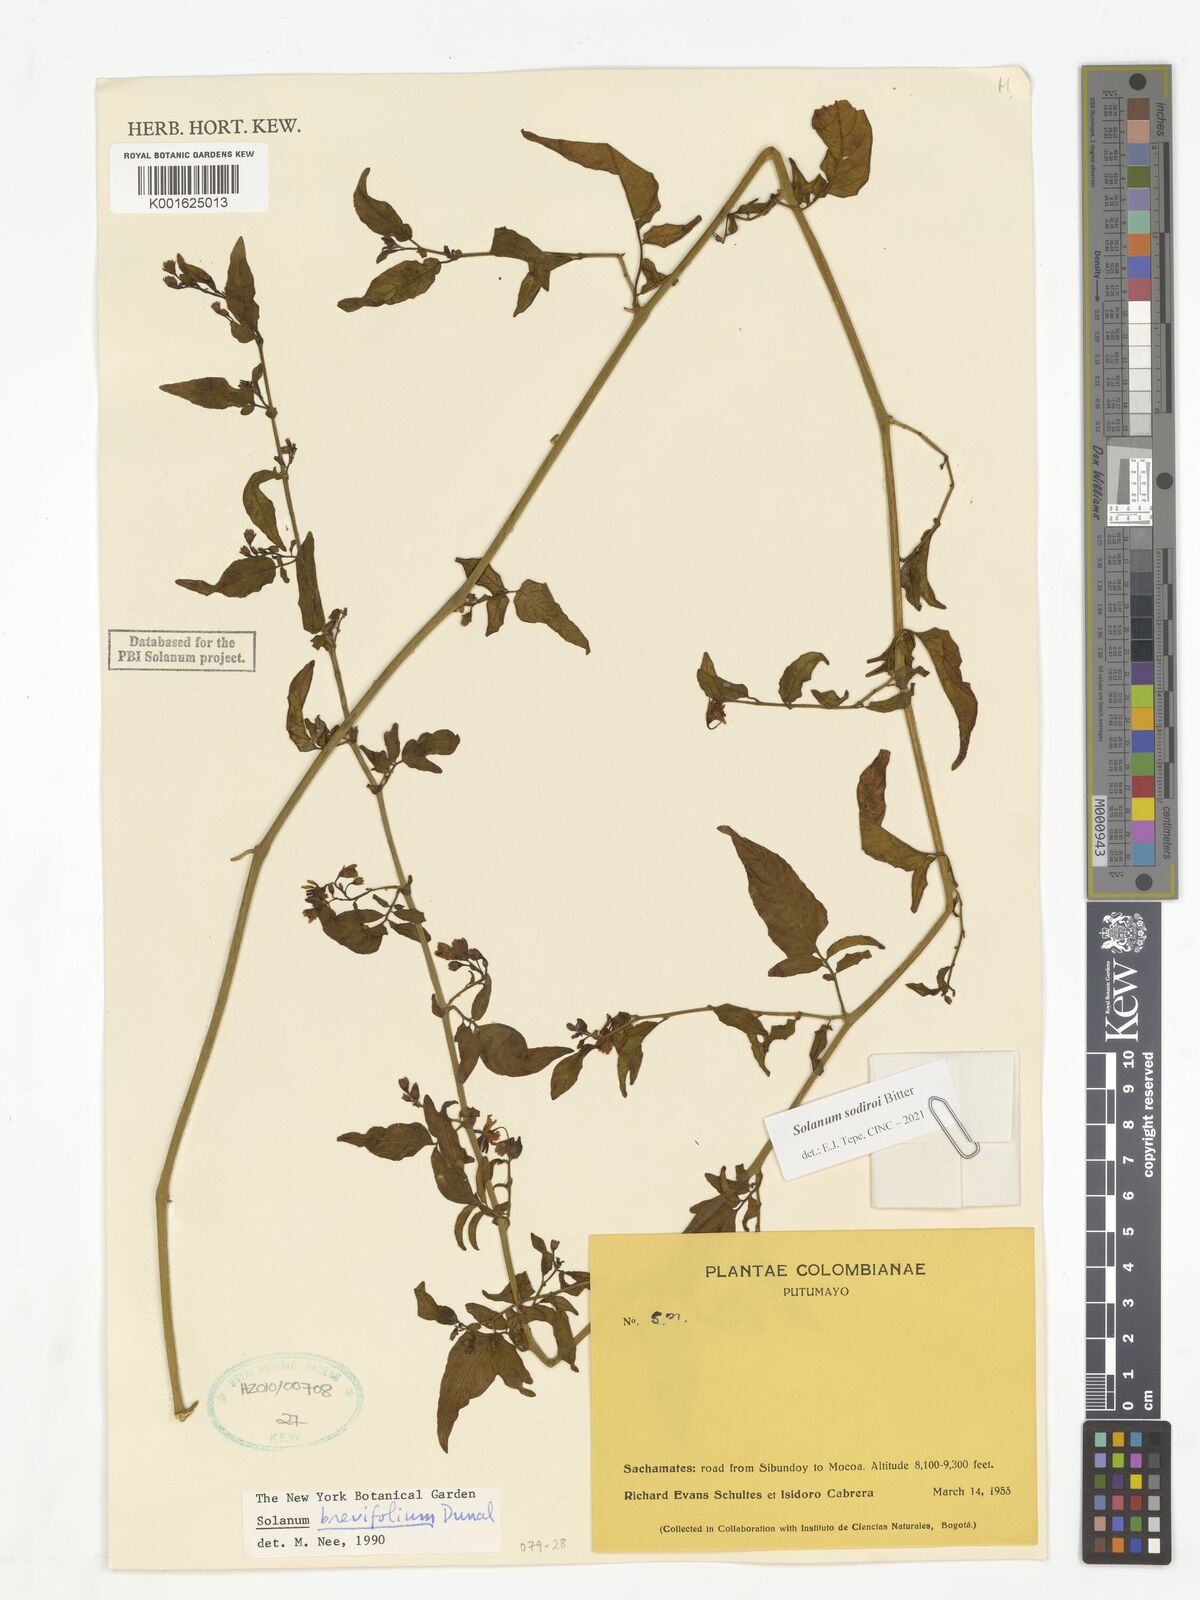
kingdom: Plantae
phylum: Tracheophyta
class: Magnoliopsida
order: Solanales
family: Solanaceae
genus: Solanum
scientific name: Solanum sodiroi
